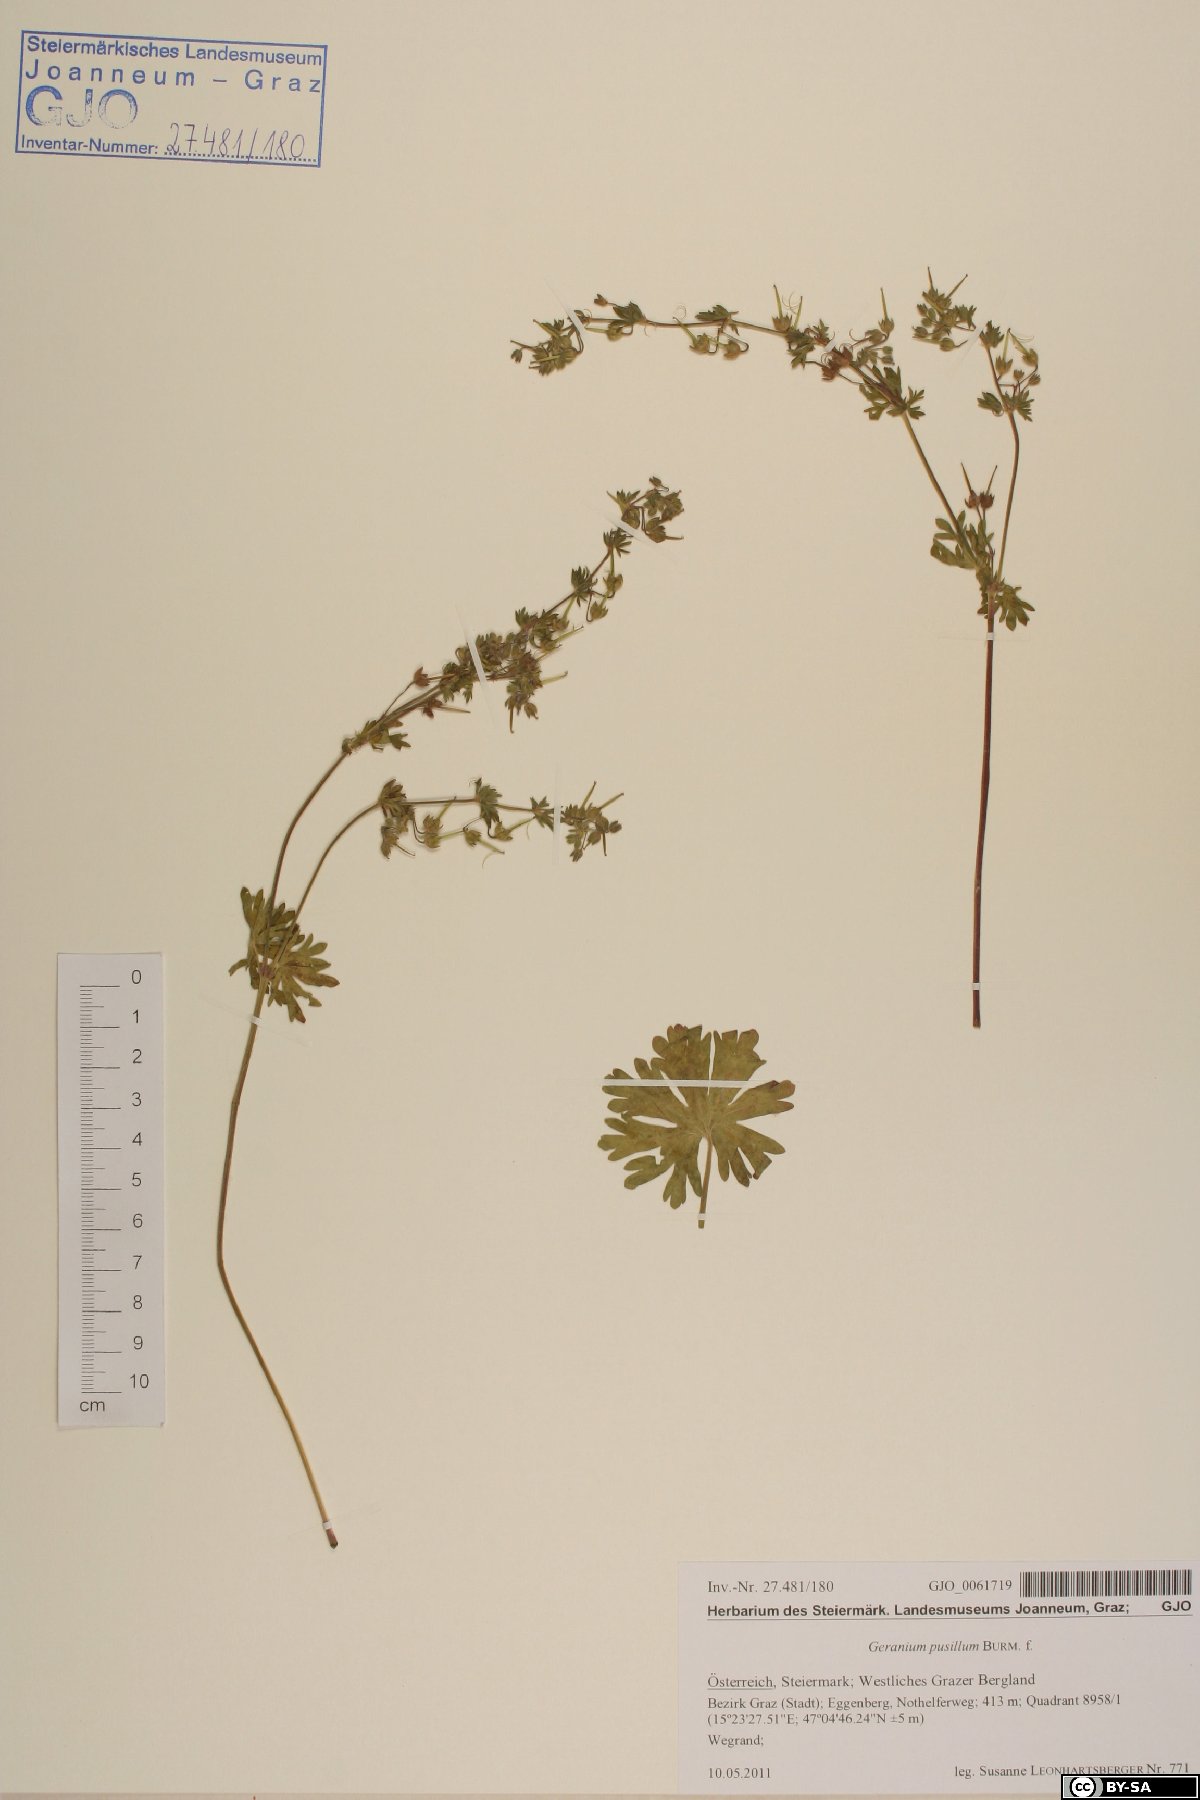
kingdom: Plantae
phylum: Tracheophyta
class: Magnoliopsida
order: Geraniales
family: Geraniaceae
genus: Geranium
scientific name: Geranium pusillum
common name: Small geranium
